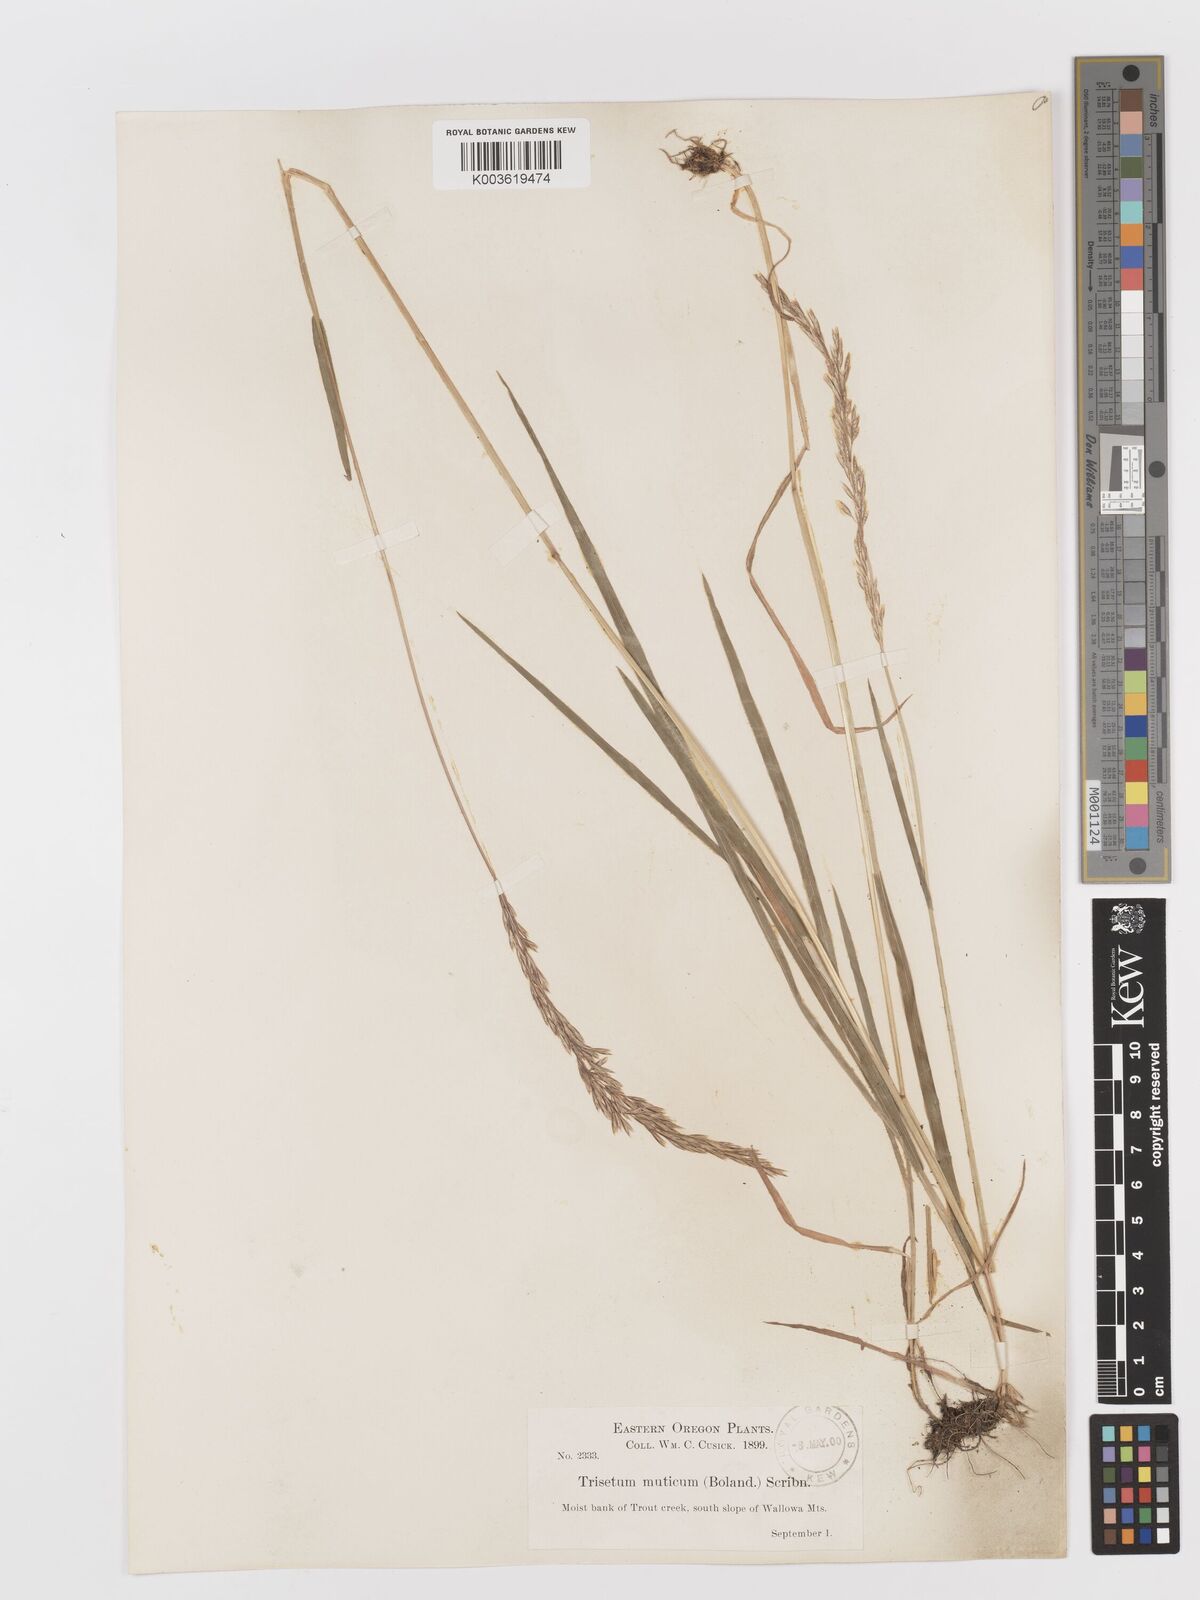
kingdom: Plantae
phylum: Tracheophyta
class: Liliopsida
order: Poales
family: Poaceae
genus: Graphephorum
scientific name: Graphephorum wolfii
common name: Wolf's trisetum
